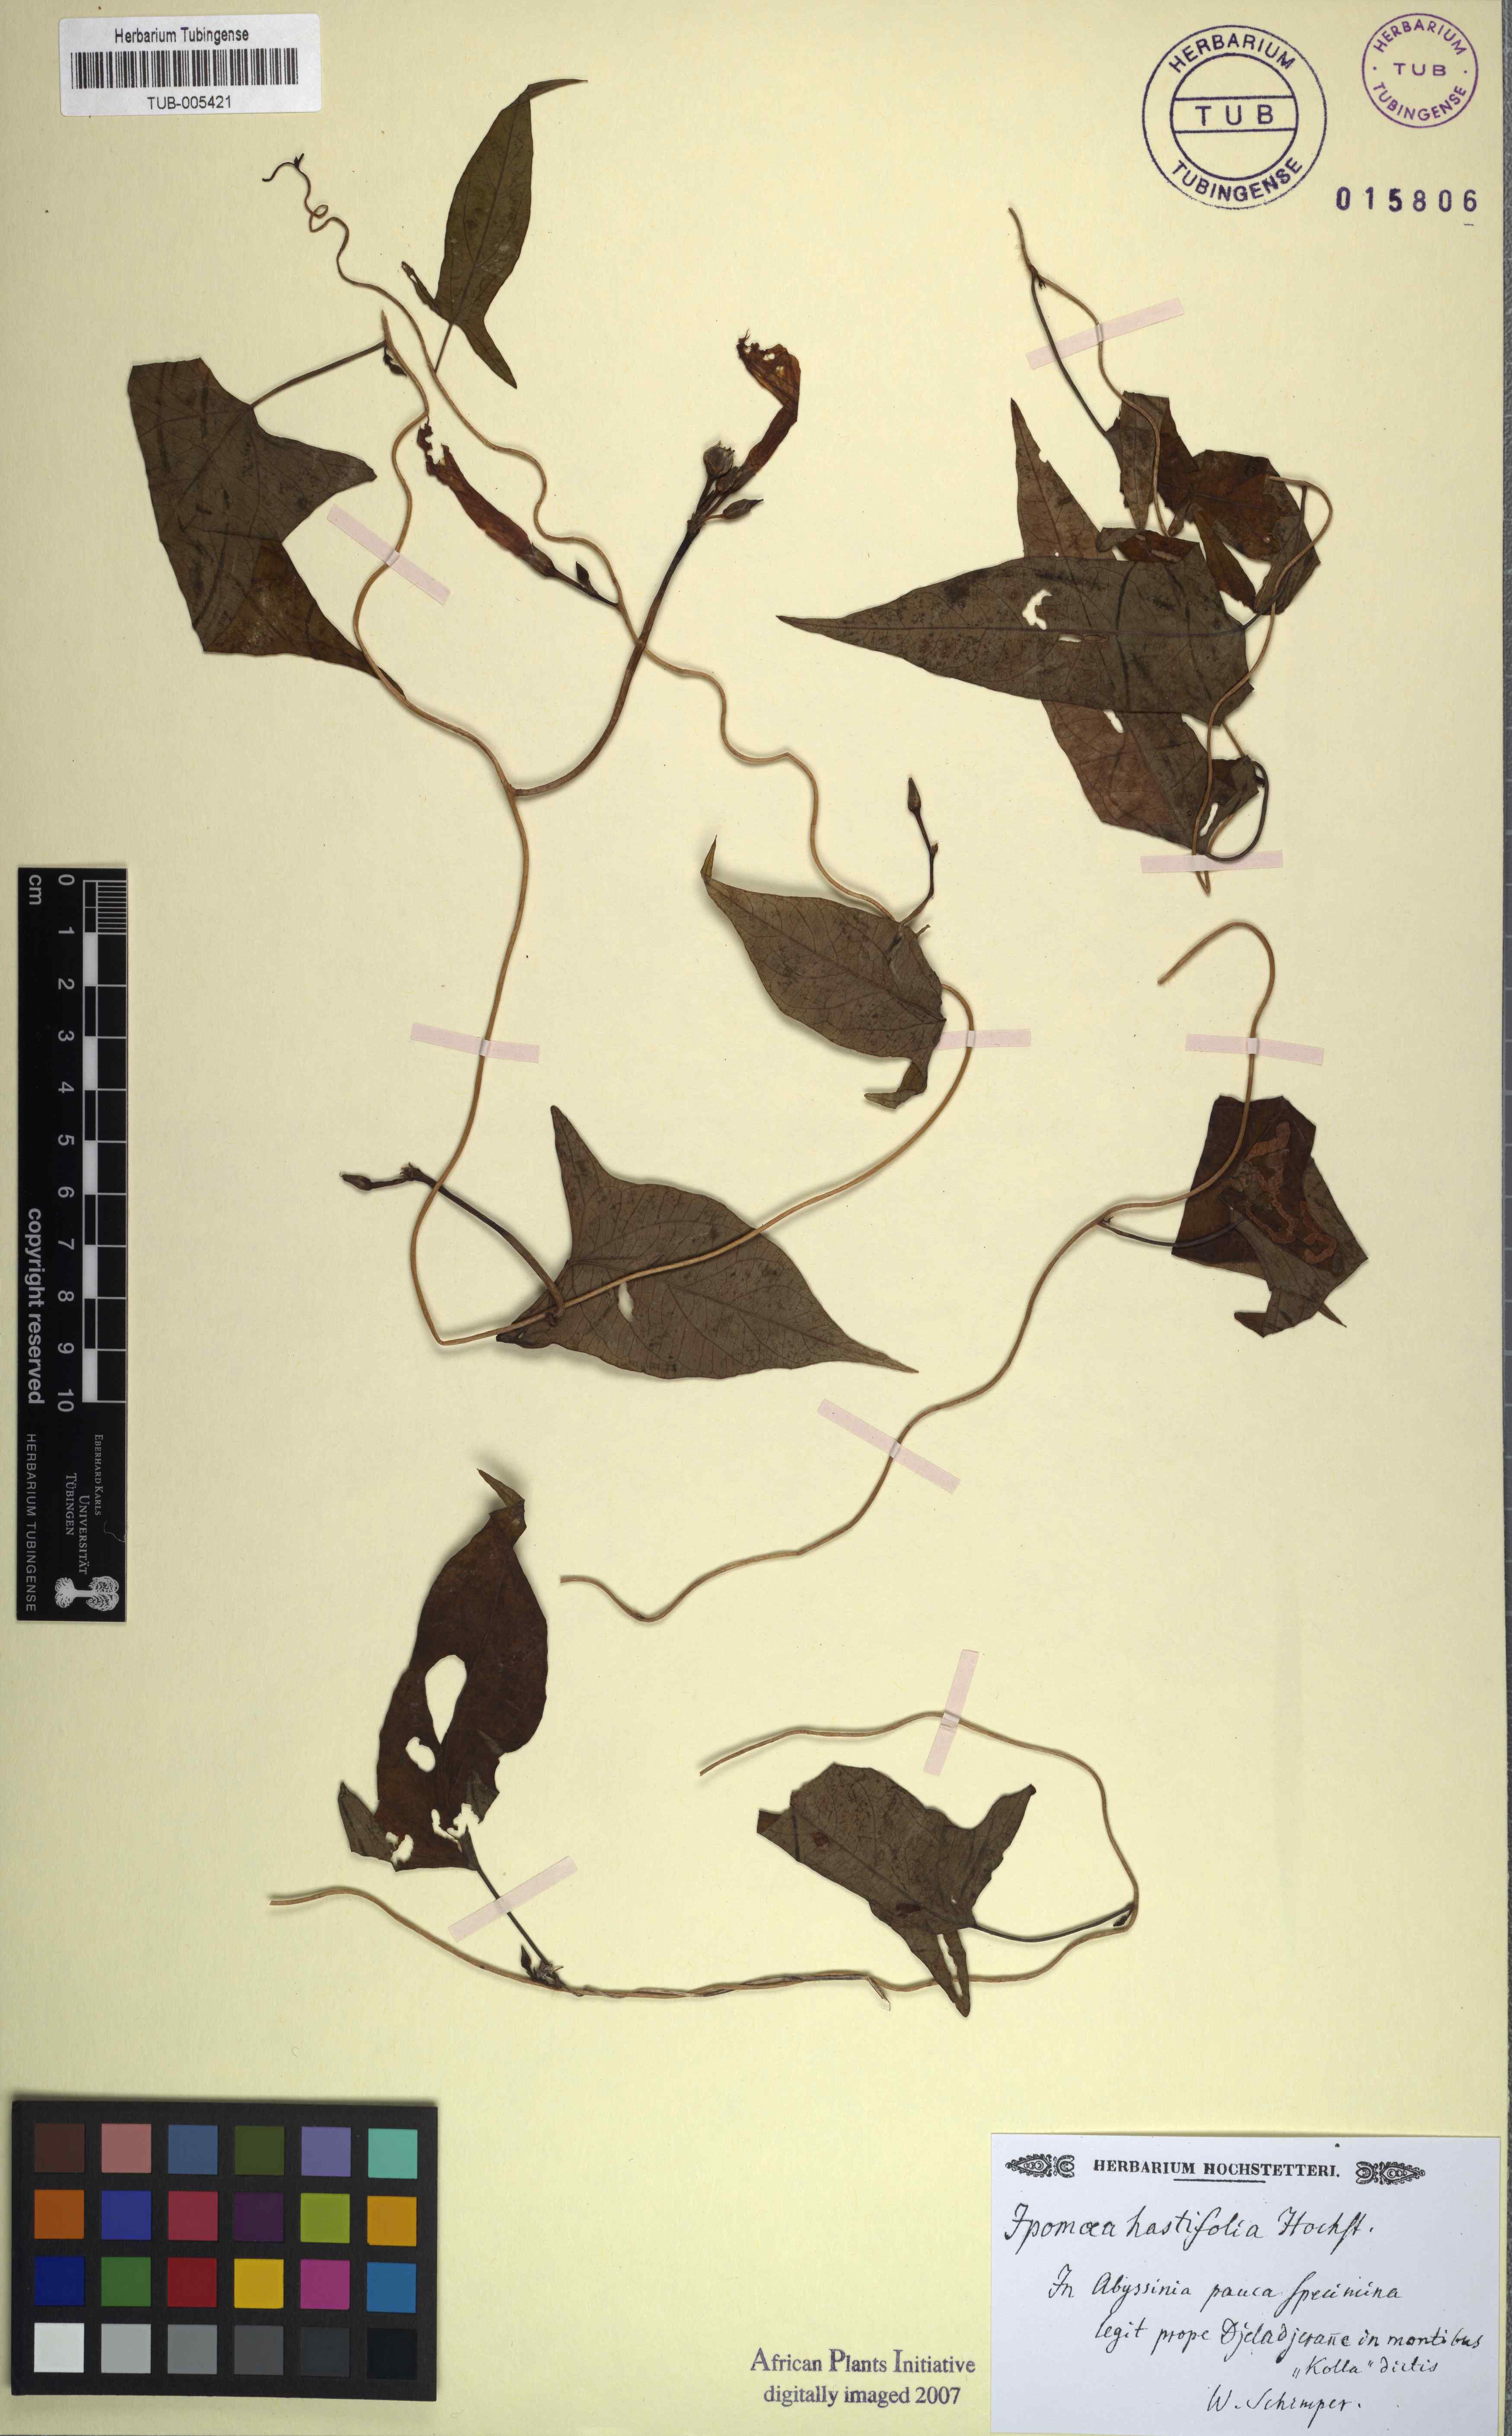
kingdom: Plantae
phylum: Tracheophyta
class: Magnoliopsida
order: Solanales
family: Convolvulaceae
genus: Ipomoea
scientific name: Ipomoea hastifolia
